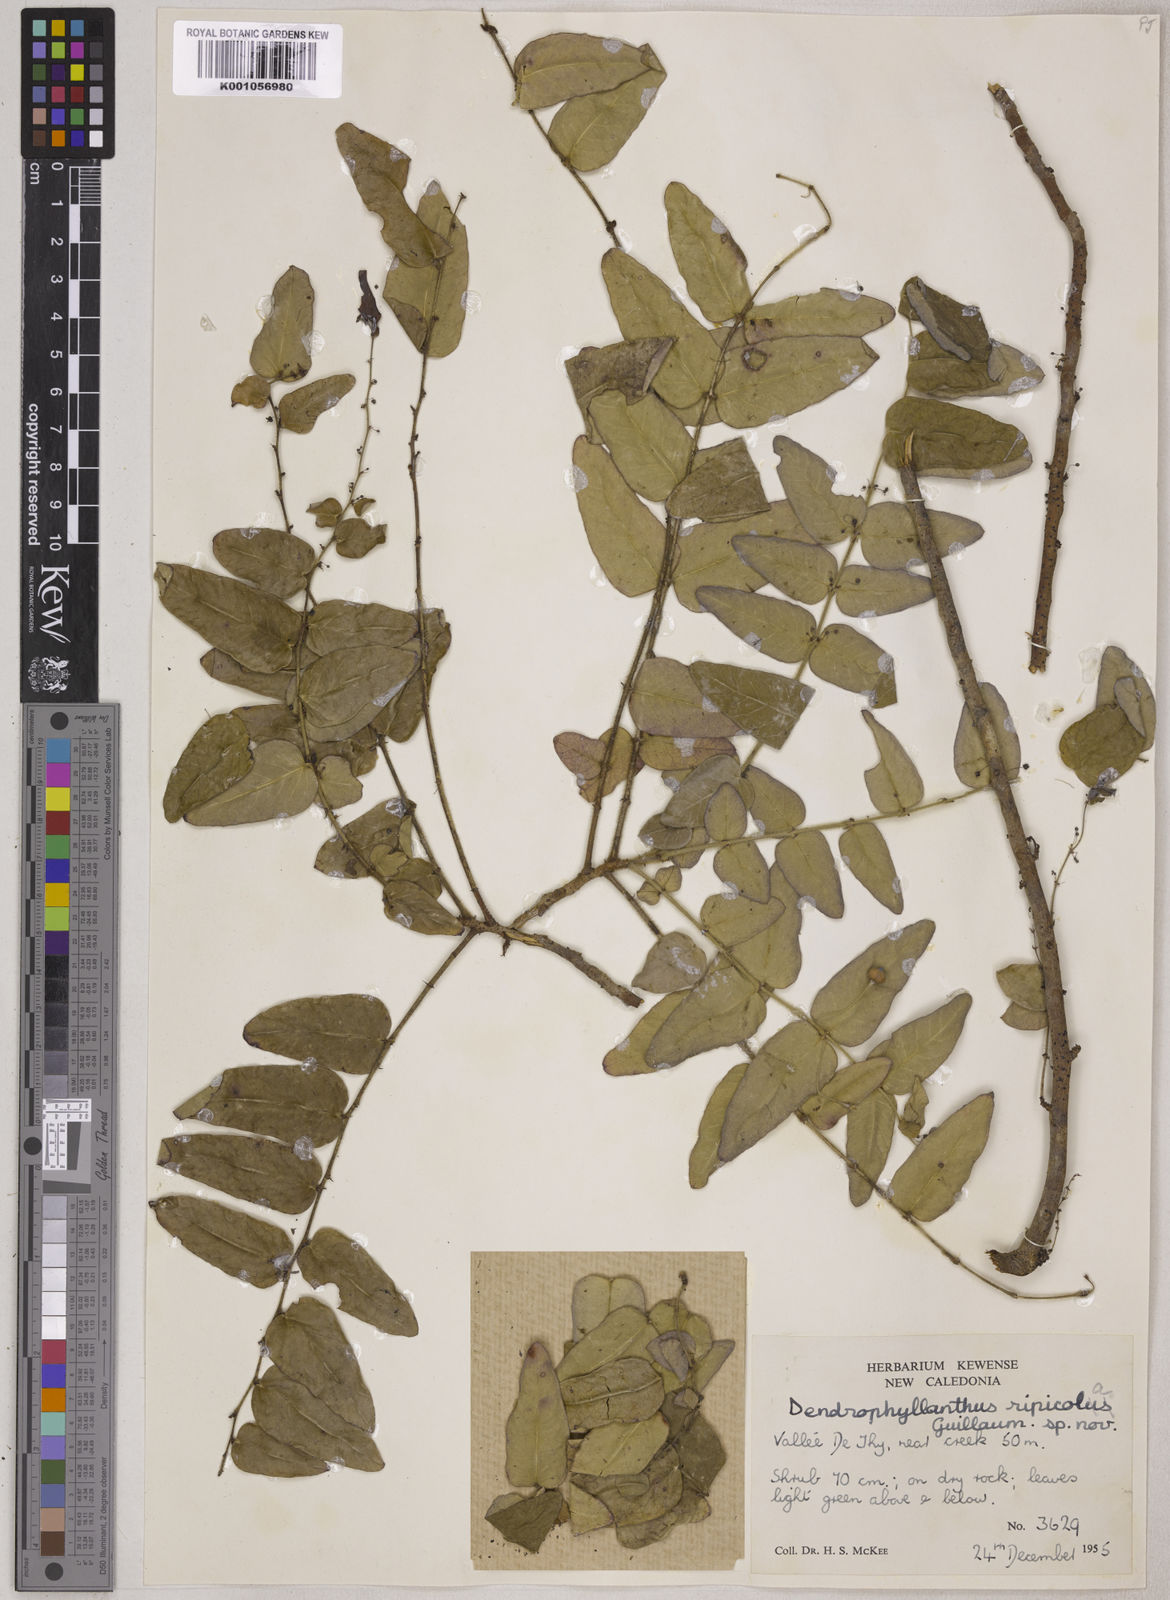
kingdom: Plantae
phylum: Tracheophyta
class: Magnoliopsida
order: Malpighiales
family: Phyllanthaceae
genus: Phyllanthus
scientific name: Phyllanthus chamaecerasus
